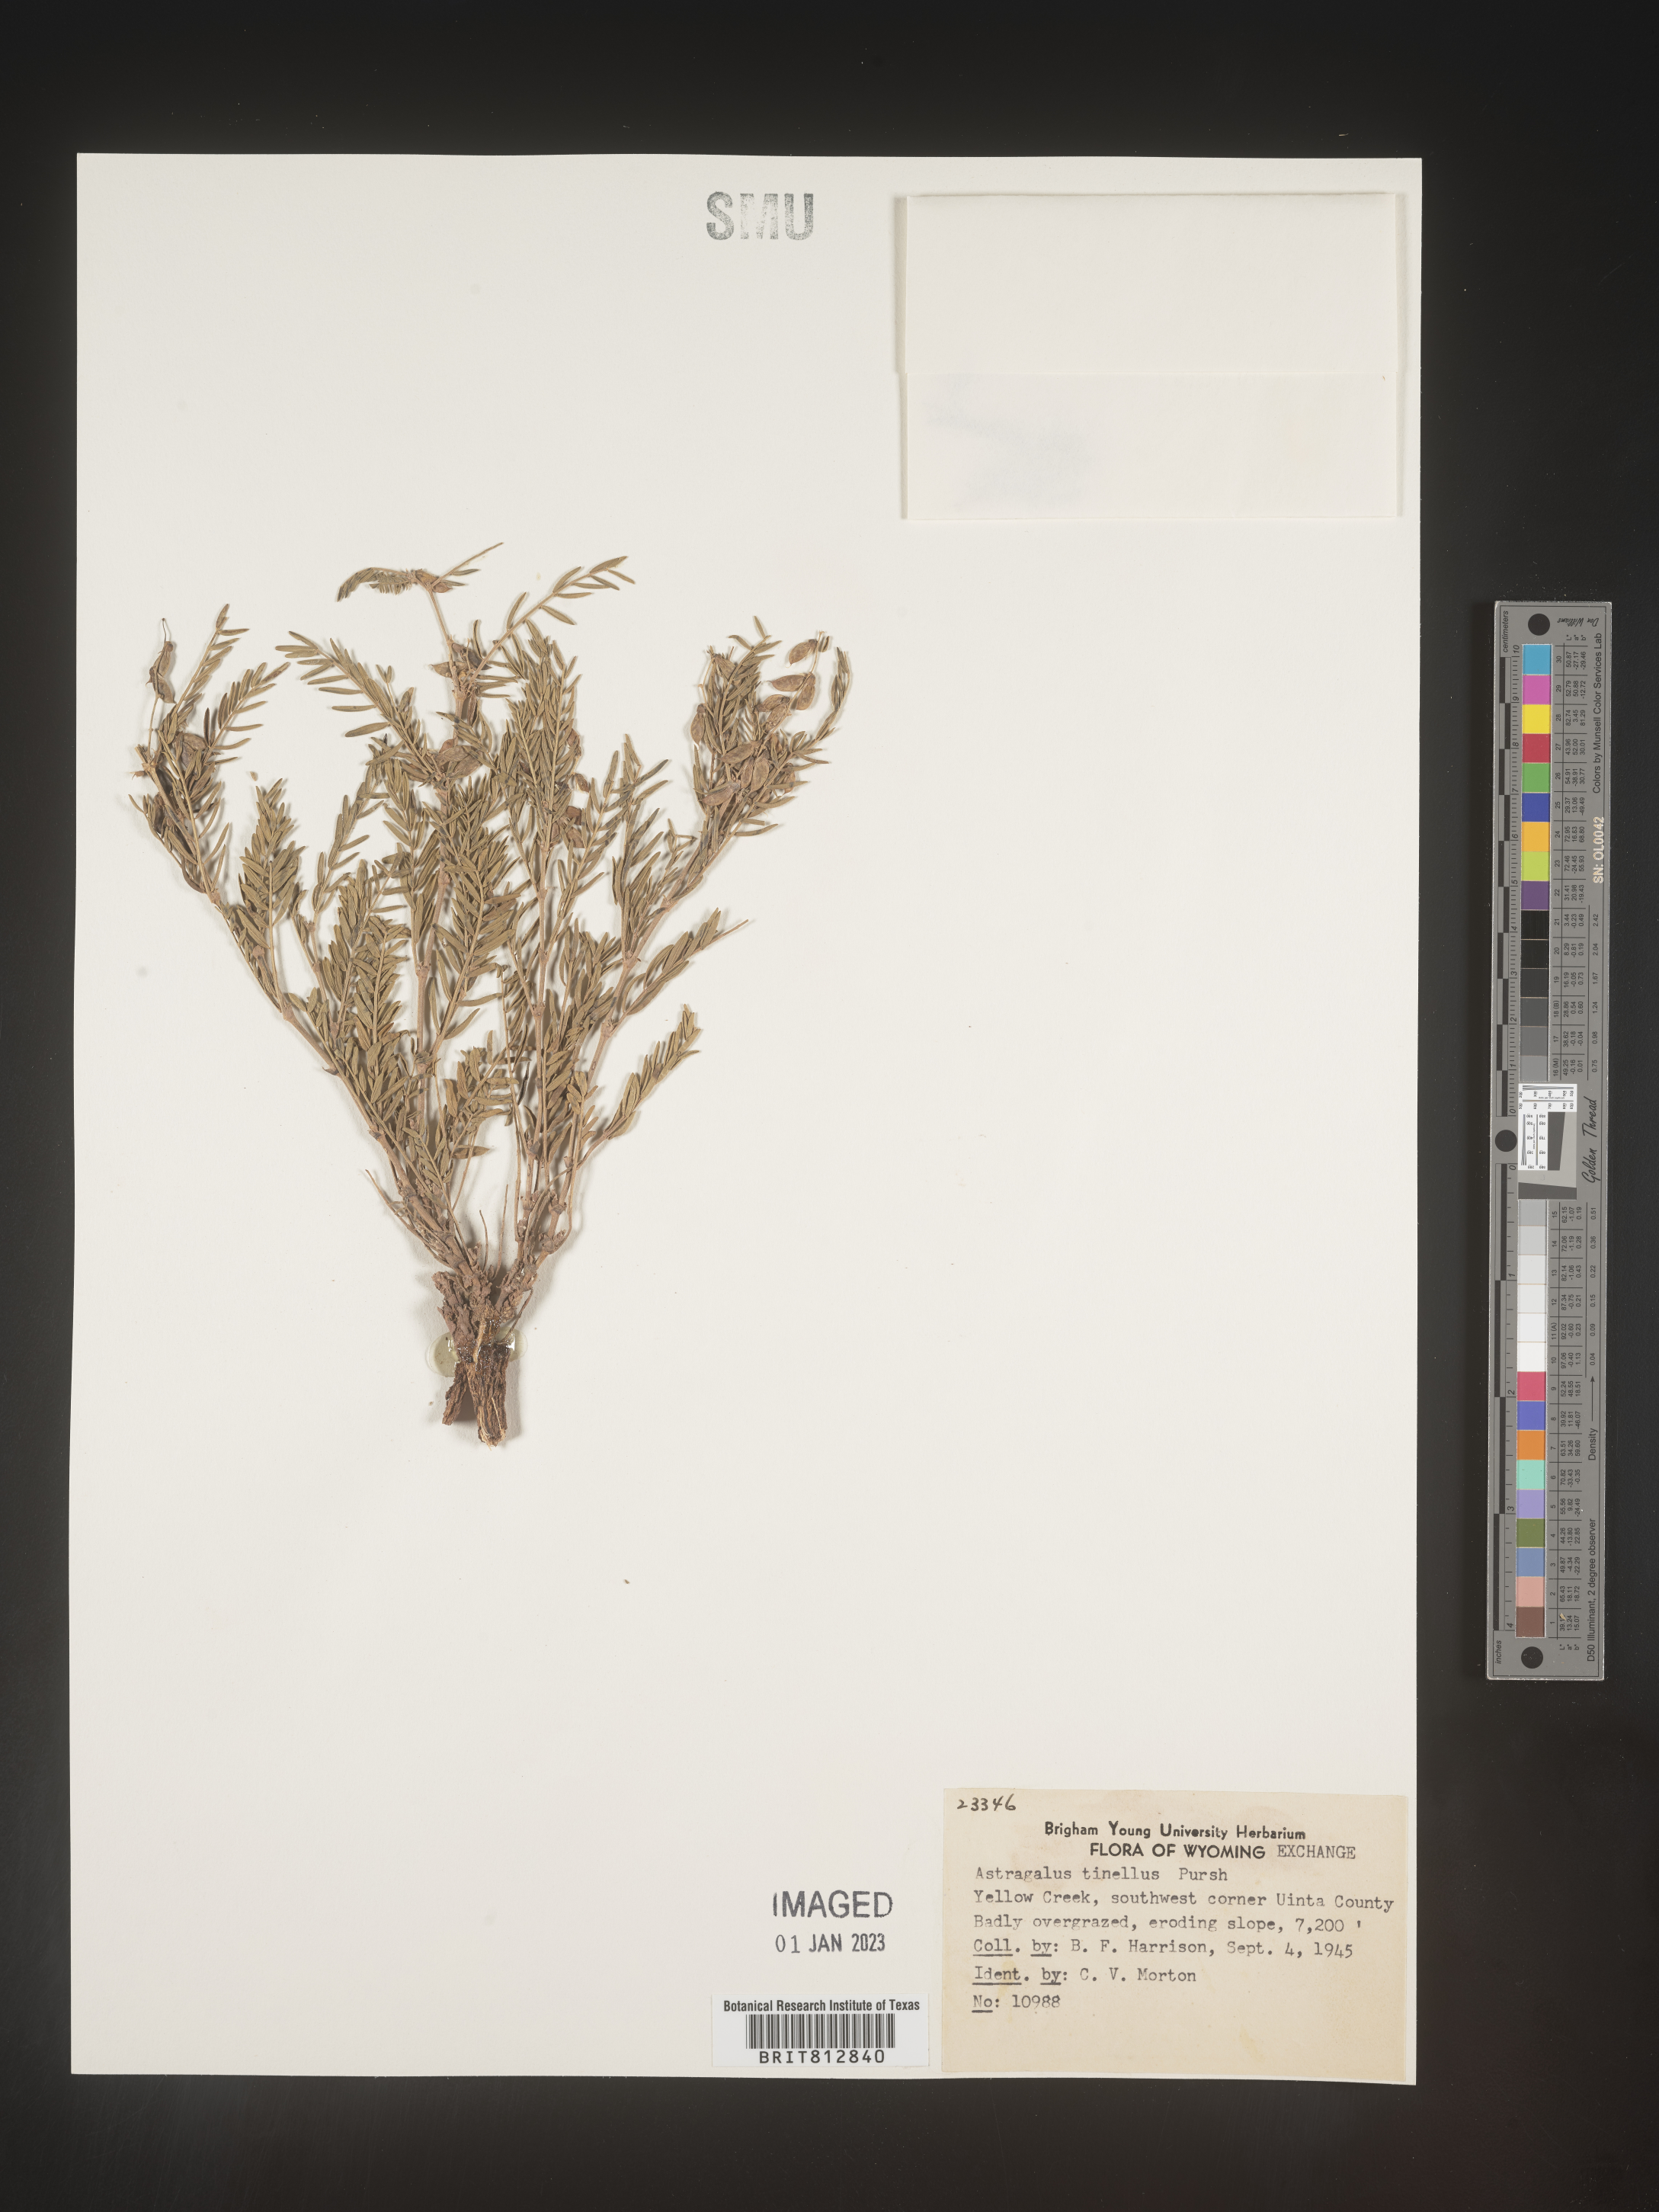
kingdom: Plantae
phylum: Tracheophyta
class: Magnoliopsida
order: Fabales
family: Fabaceae
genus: Astragalus
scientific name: Astragalus tenellus
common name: Pulse milk-vetch
